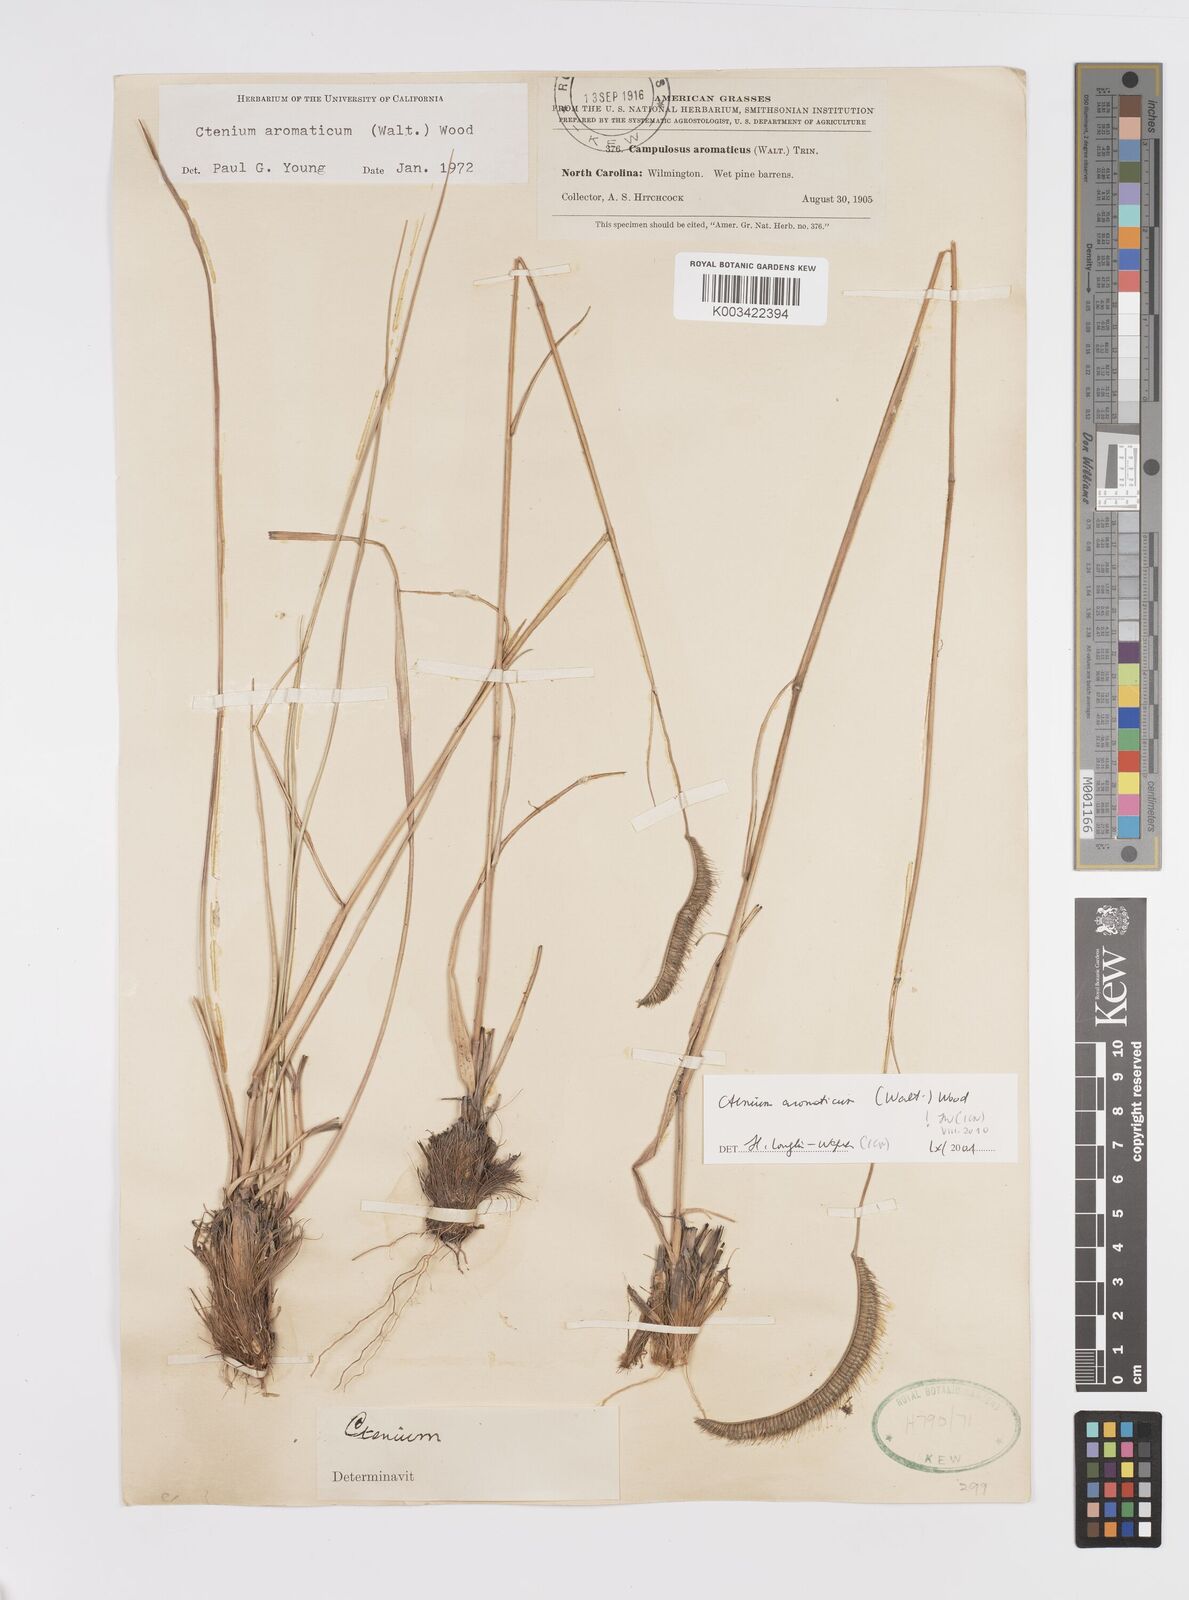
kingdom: Plantae
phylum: Tracheophyta
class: Liliopsida
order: Poales
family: Poaceae
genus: Ctenium
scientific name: Ctenium aromaticum
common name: Toothache grass
